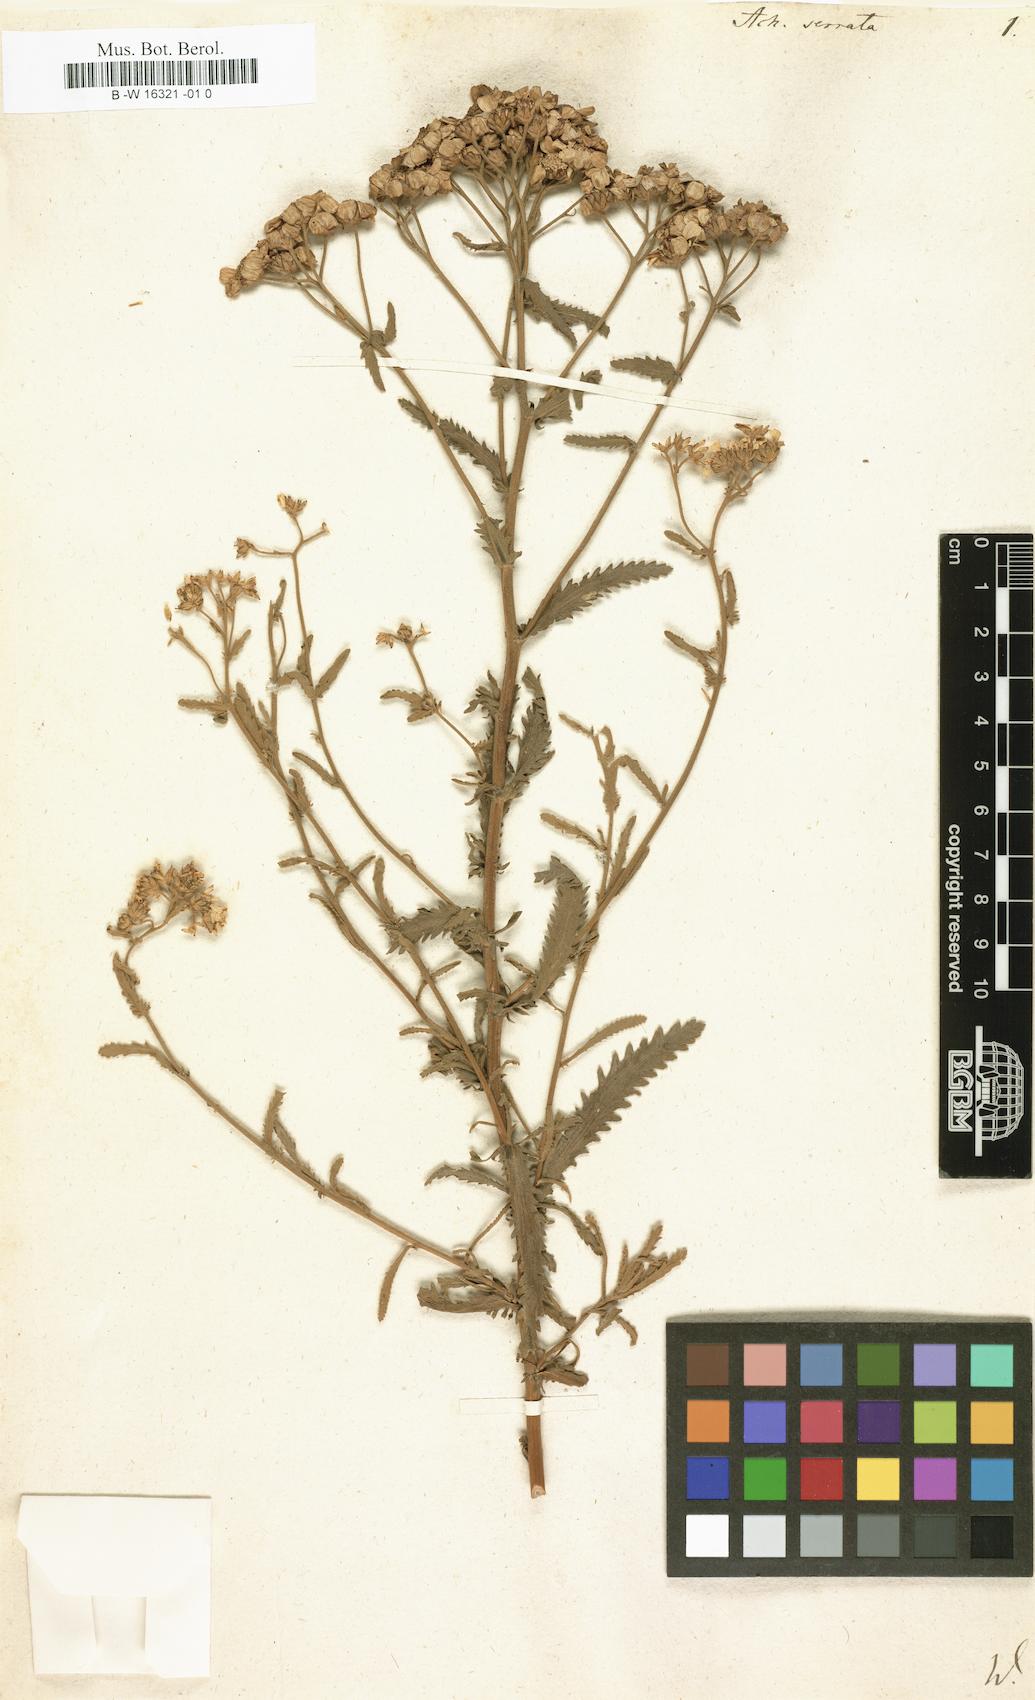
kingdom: Plantae
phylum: Tracheophyta
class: Magnoliopsida
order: Asterales
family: Asteraceae
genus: Achillea
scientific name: Achillea serrata
